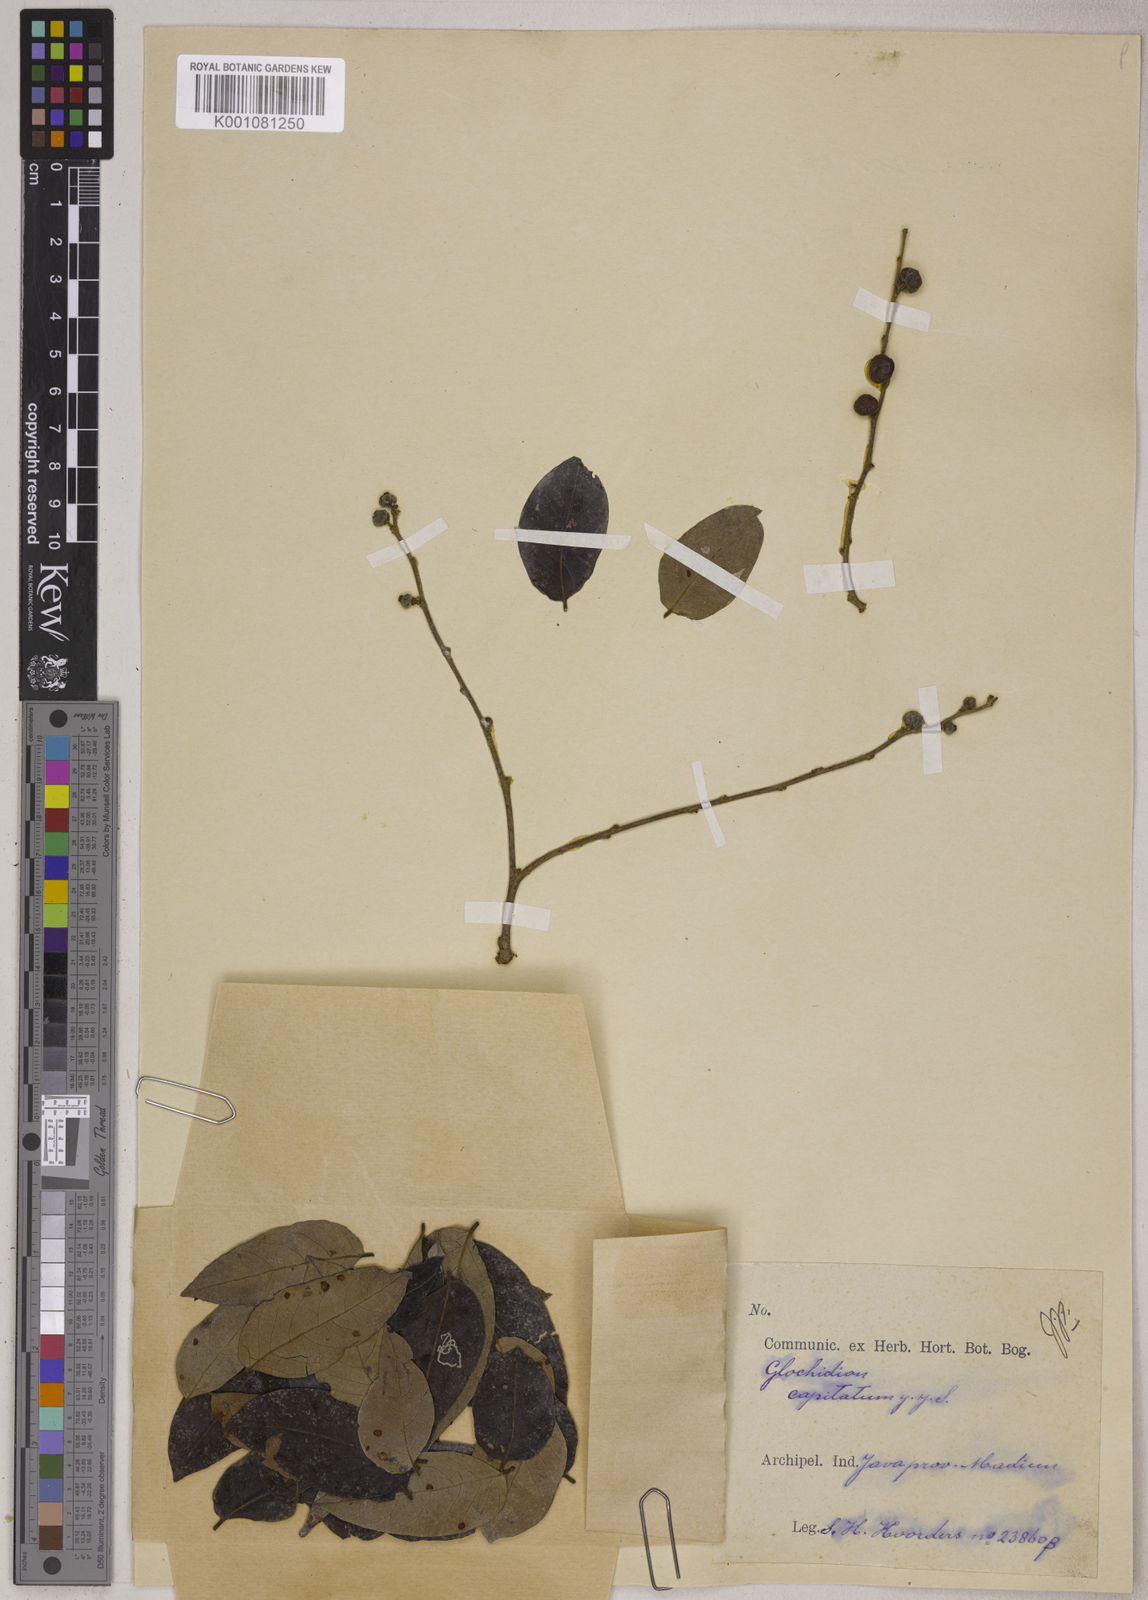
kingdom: Plantae
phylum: Tracheophyta
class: Magnoliopsida
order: Malpighiales
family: Phyllanthaceae
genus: Glochidion
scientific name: Glochidion macrostigma
